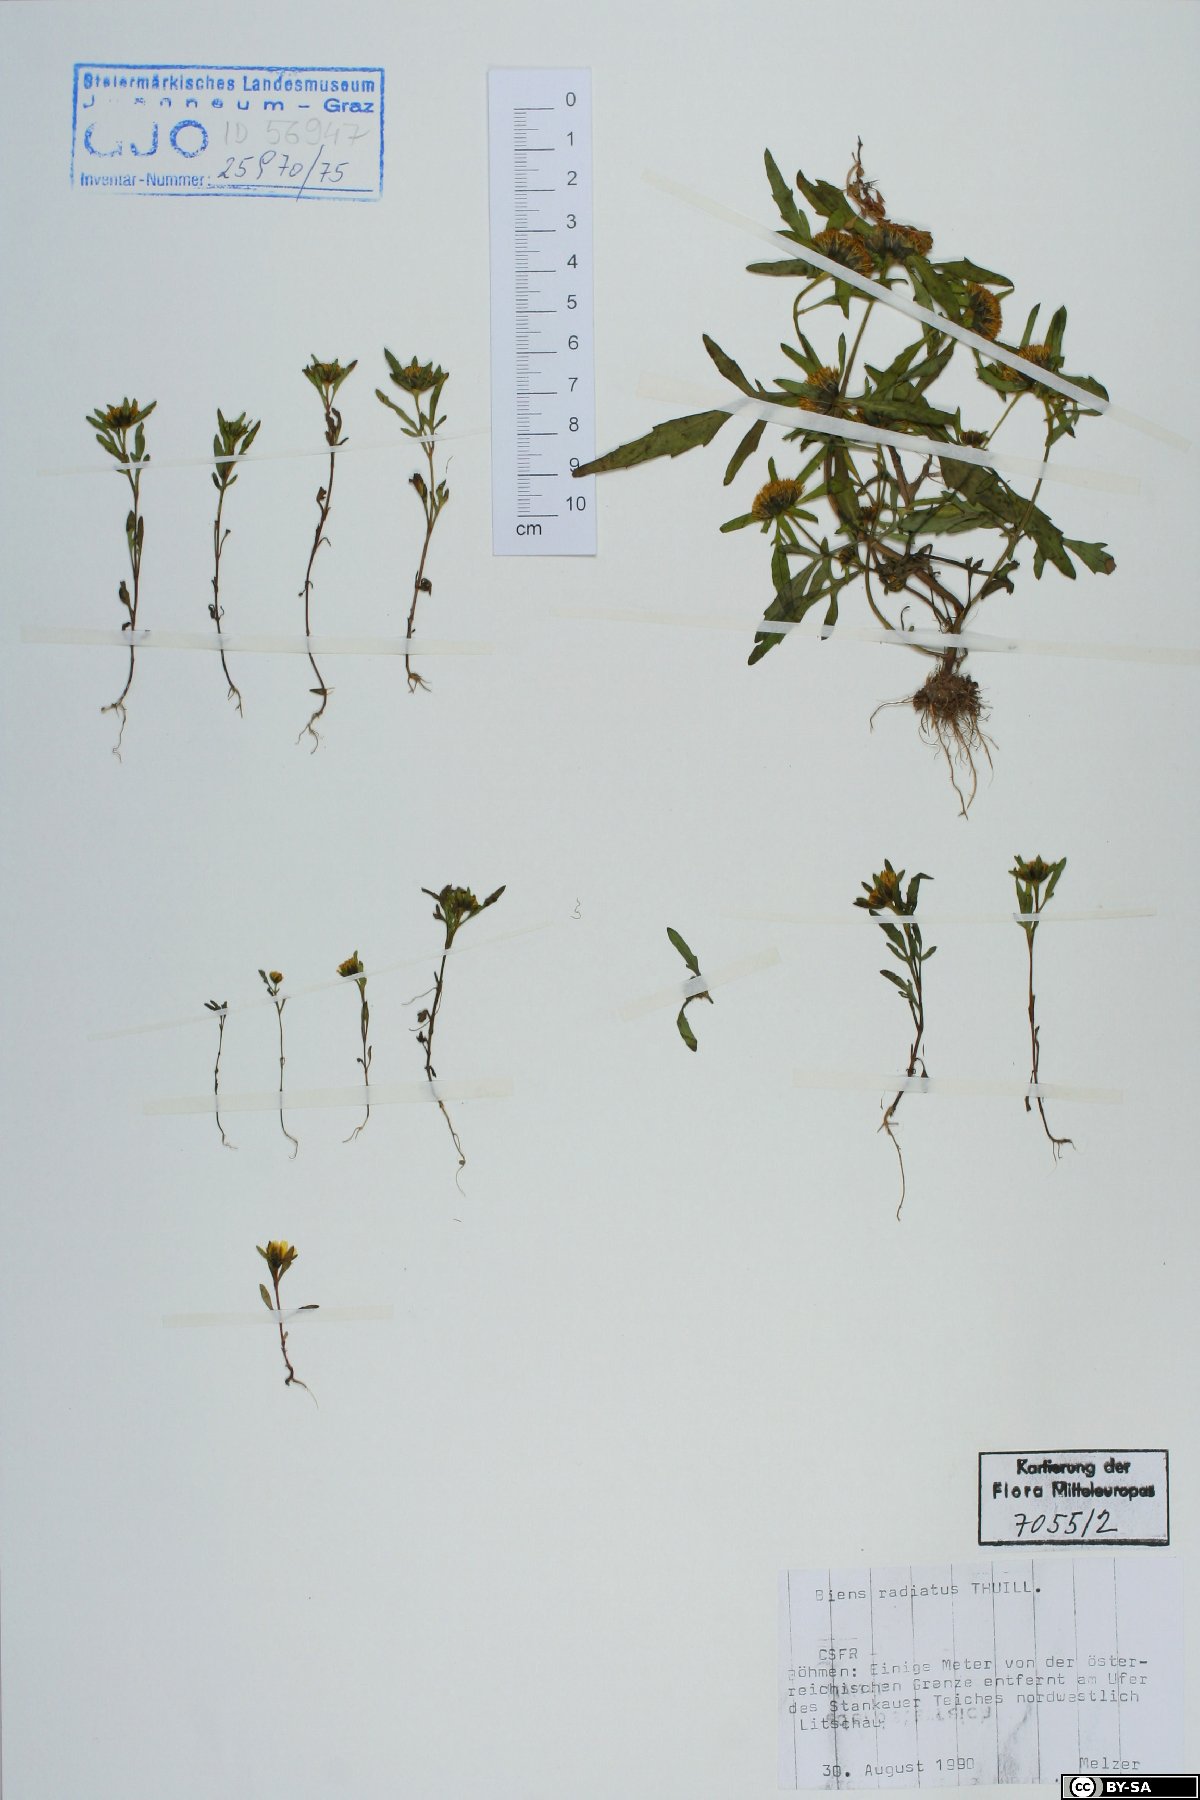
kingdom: Plantae
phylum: Tracheophyta
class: Magnoliopsida
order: Asterales
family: Asteraceae
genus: Bidens
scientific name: Bidens radiata
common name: Radiating bur-marigold
